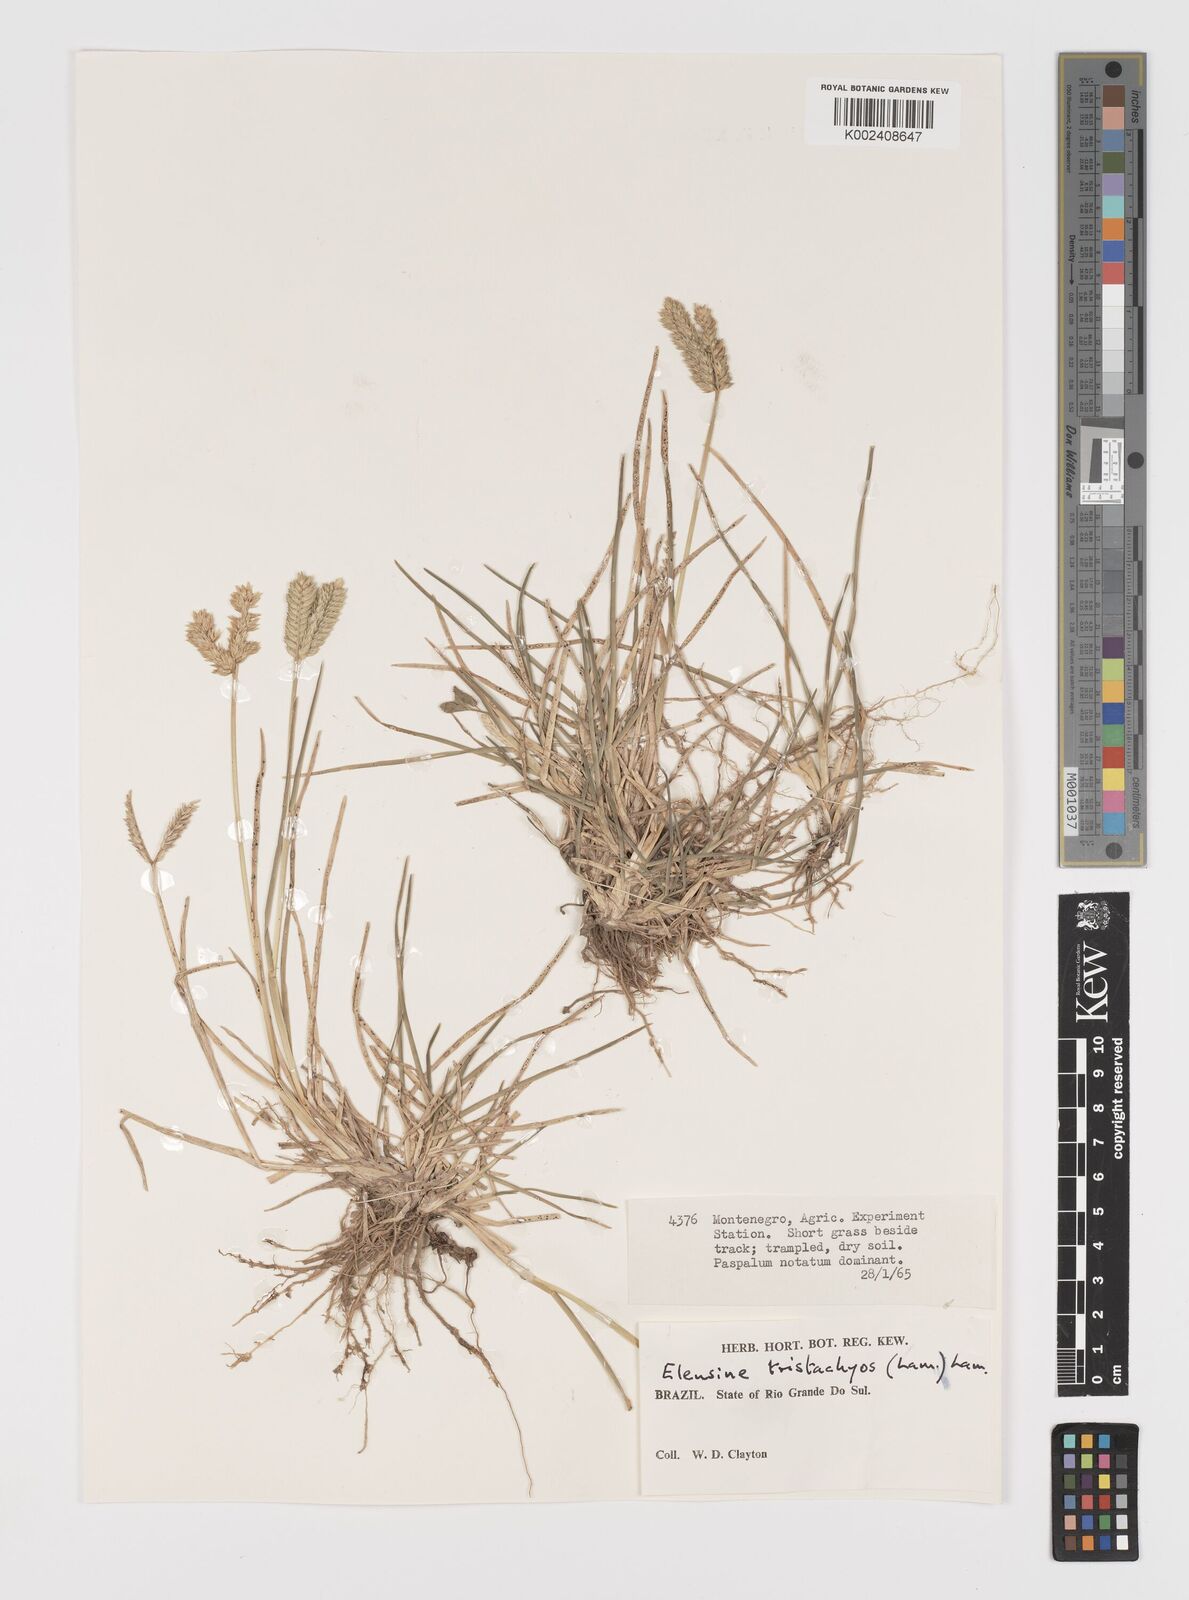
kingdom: Plantae
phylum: Tracheophyta
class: Liliopsida
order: Poales
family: Poaceae
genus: Eleusine
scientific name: Eleusine tristachya
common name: American yard-grass
